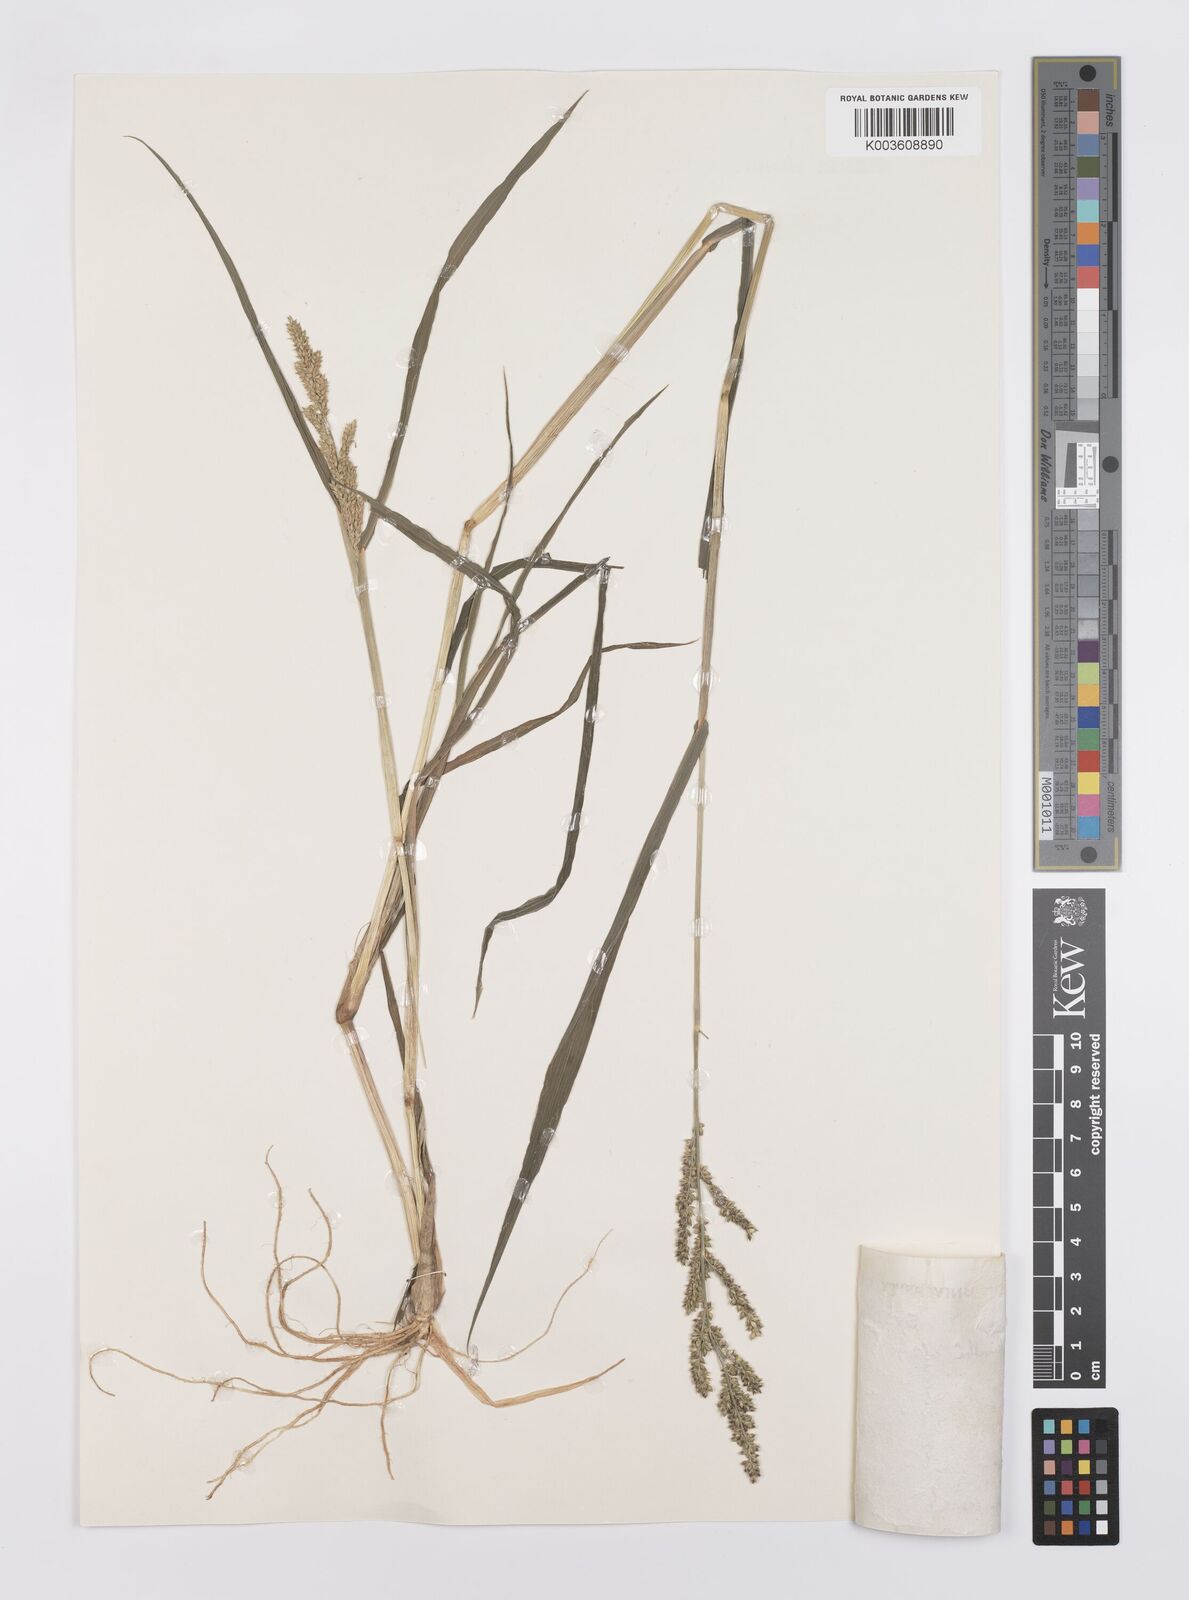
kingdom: Plantae
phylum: Tracheophyta
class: Liliopsida
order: Poales
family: Poaceae
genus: Echinochloa
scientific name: Echinochloa colonum
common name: Jungle rice
